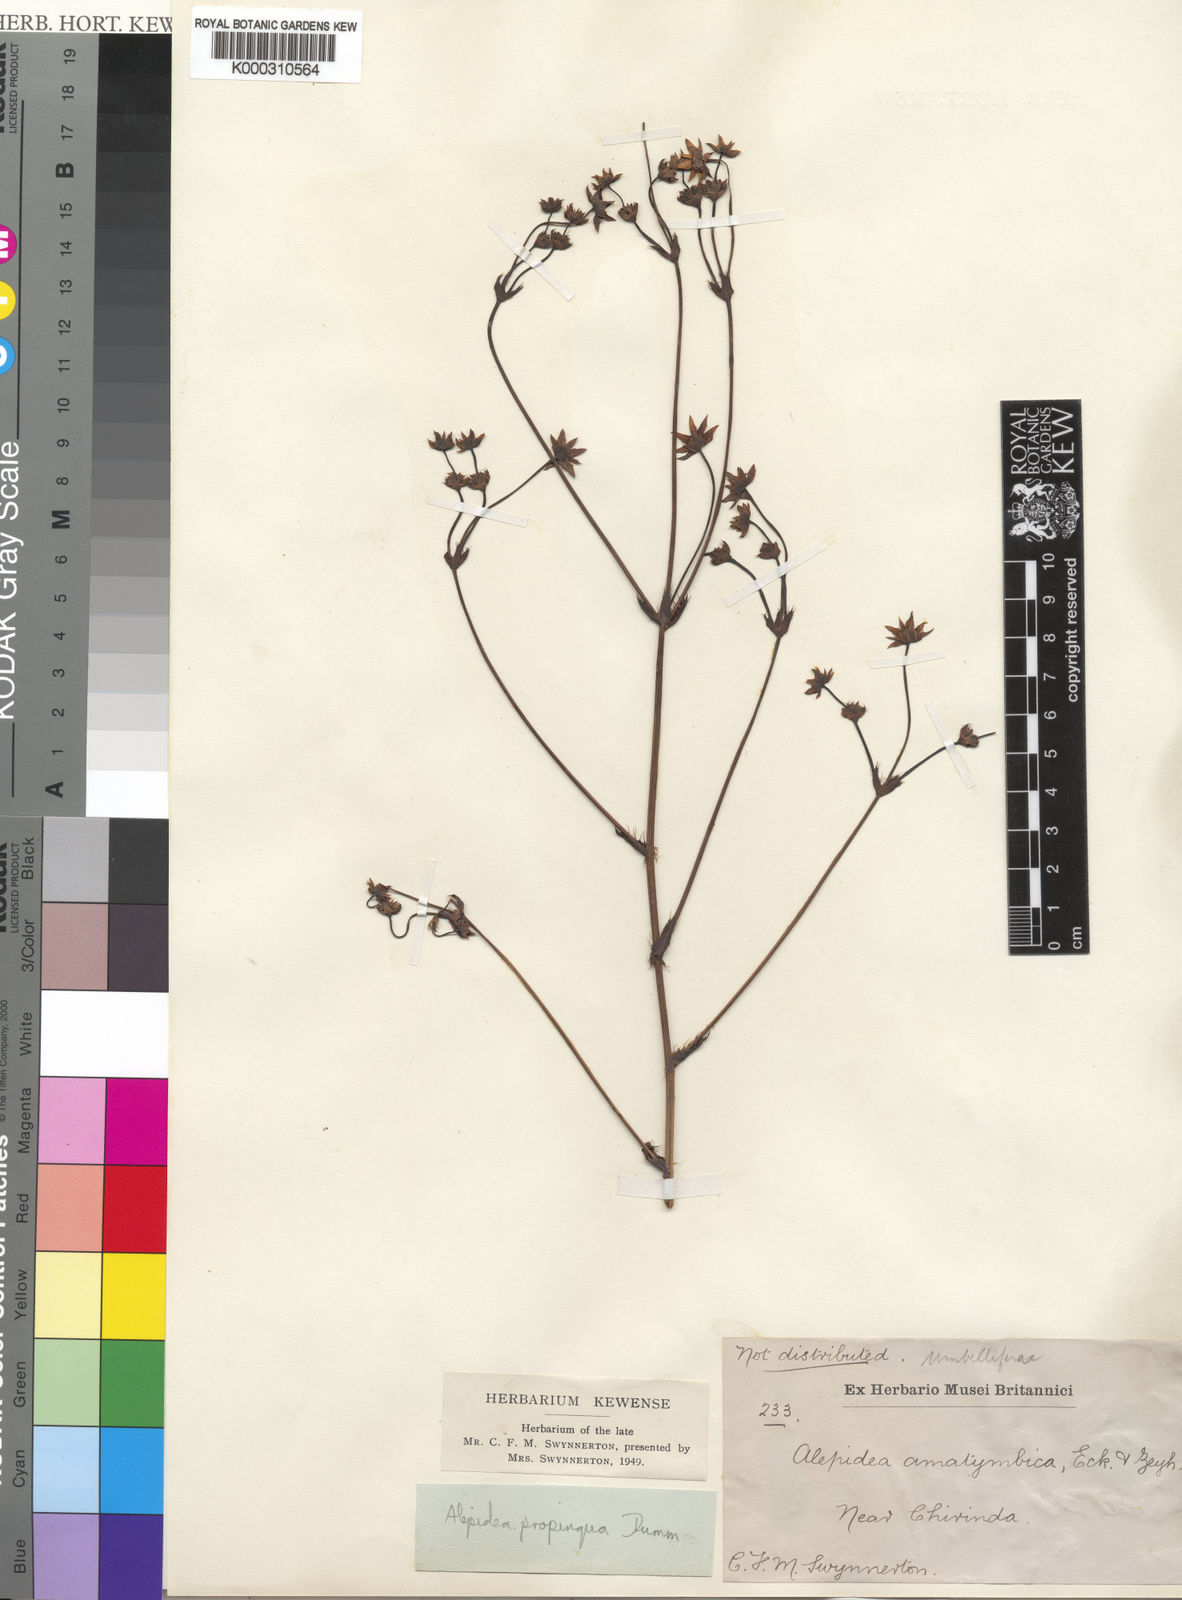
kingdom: Plantae
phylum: Tracheophyta
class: Magnoliopsida
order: Apiales
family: Apiaceae
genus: Alepidea
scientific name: Alepidea
